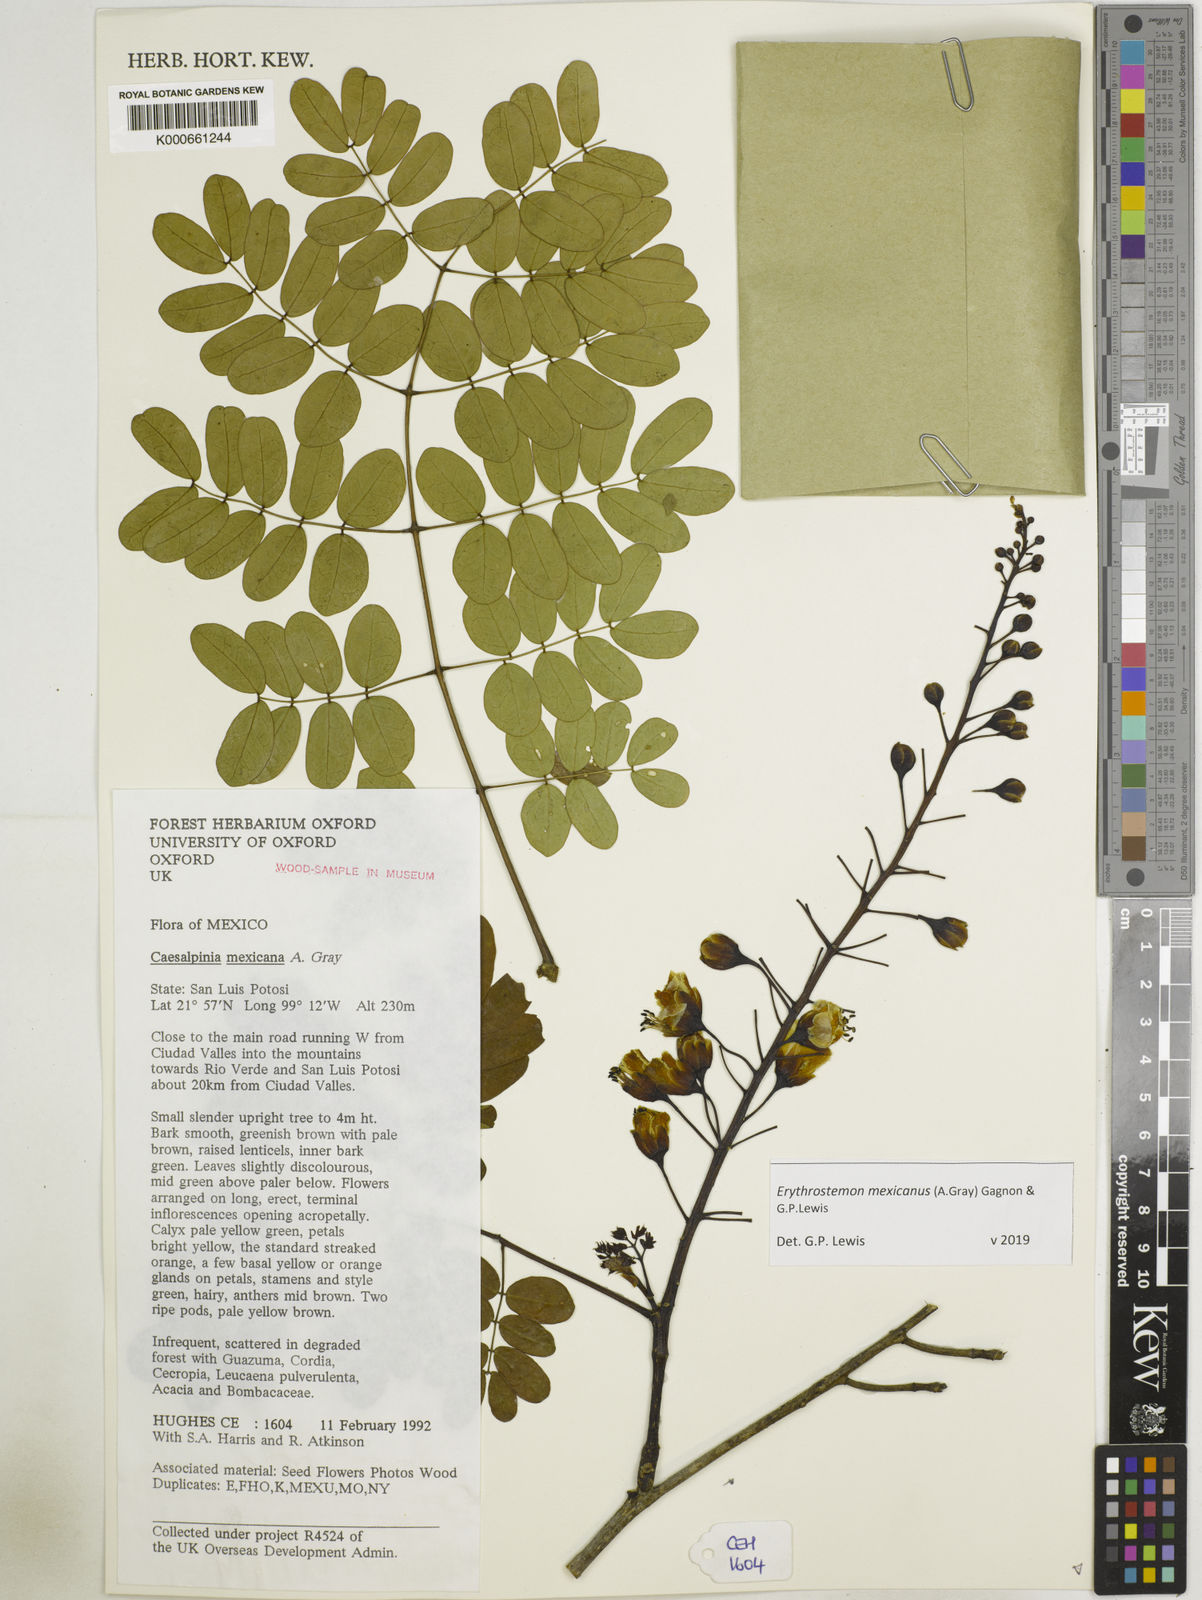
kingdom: Plantae
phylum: Tracheophyta
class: Magnoliopsida
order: Fabales
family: Fabaceae
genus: Erythrostemon
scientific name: Erythrostemon mexicanus
